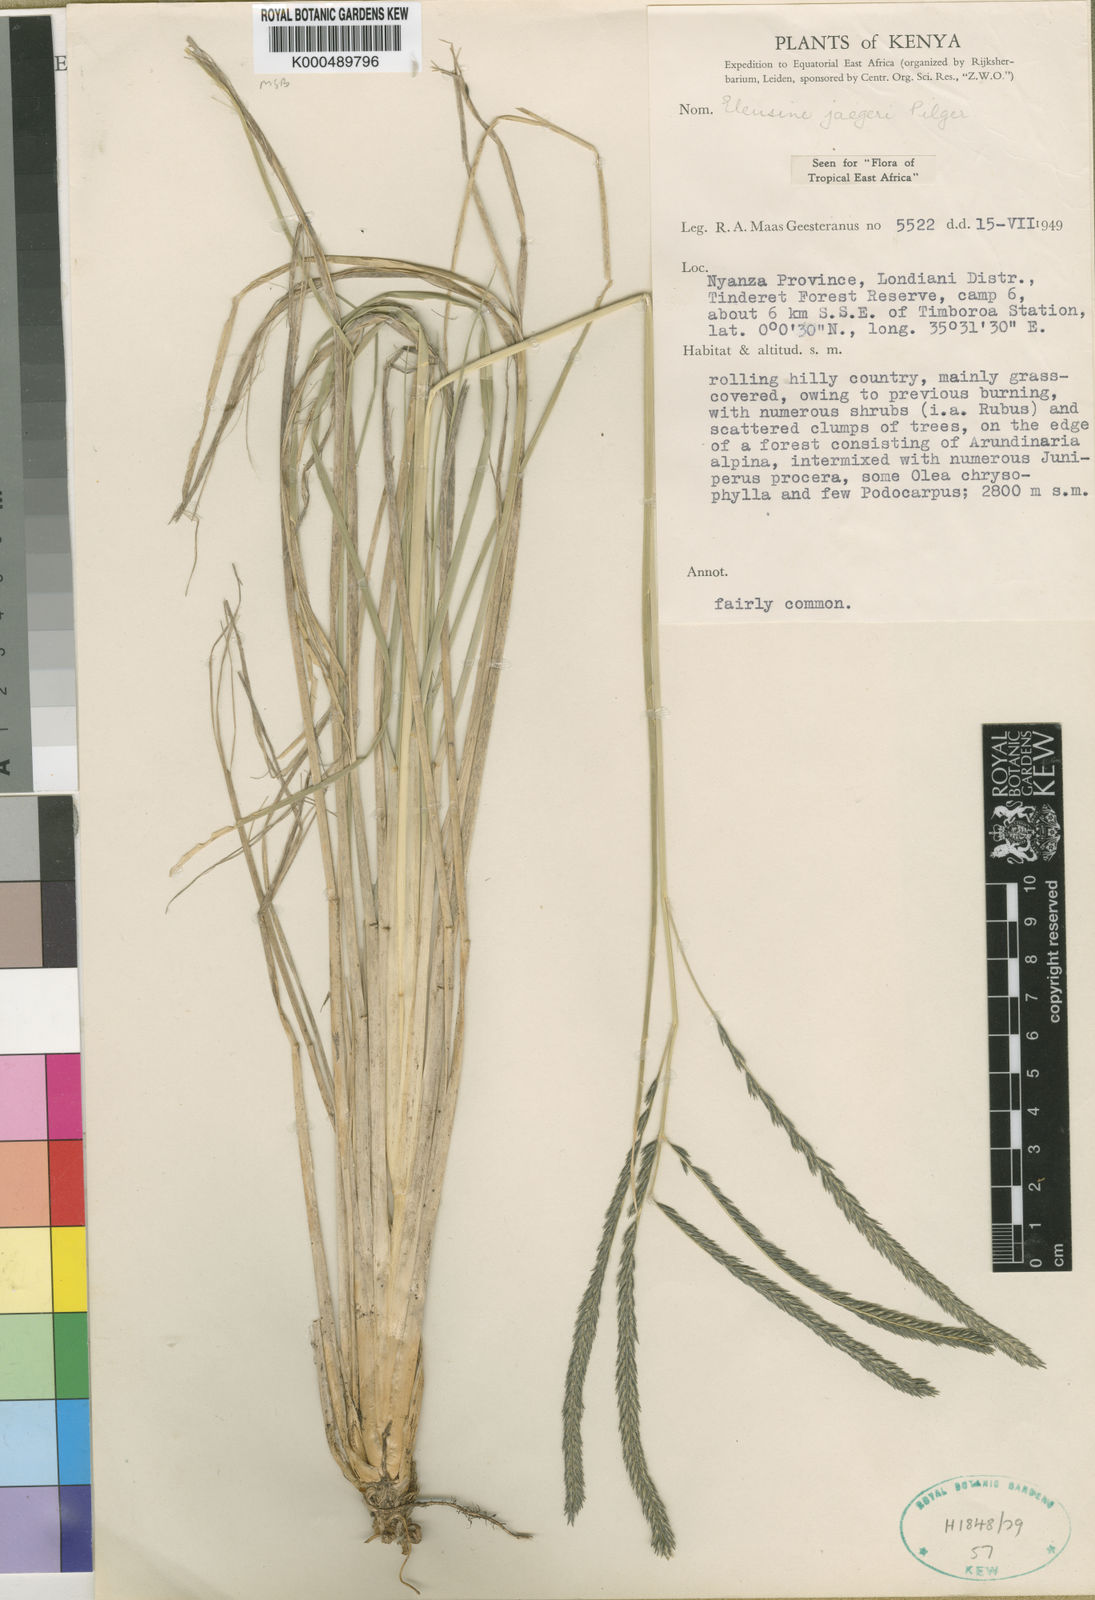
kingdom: Plantae
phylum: Tracheophyta
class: Liliopsida
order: Poales
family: Poaceae
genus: Eleusine
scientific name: Eleusine jaegeri
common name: Manyatta grass
